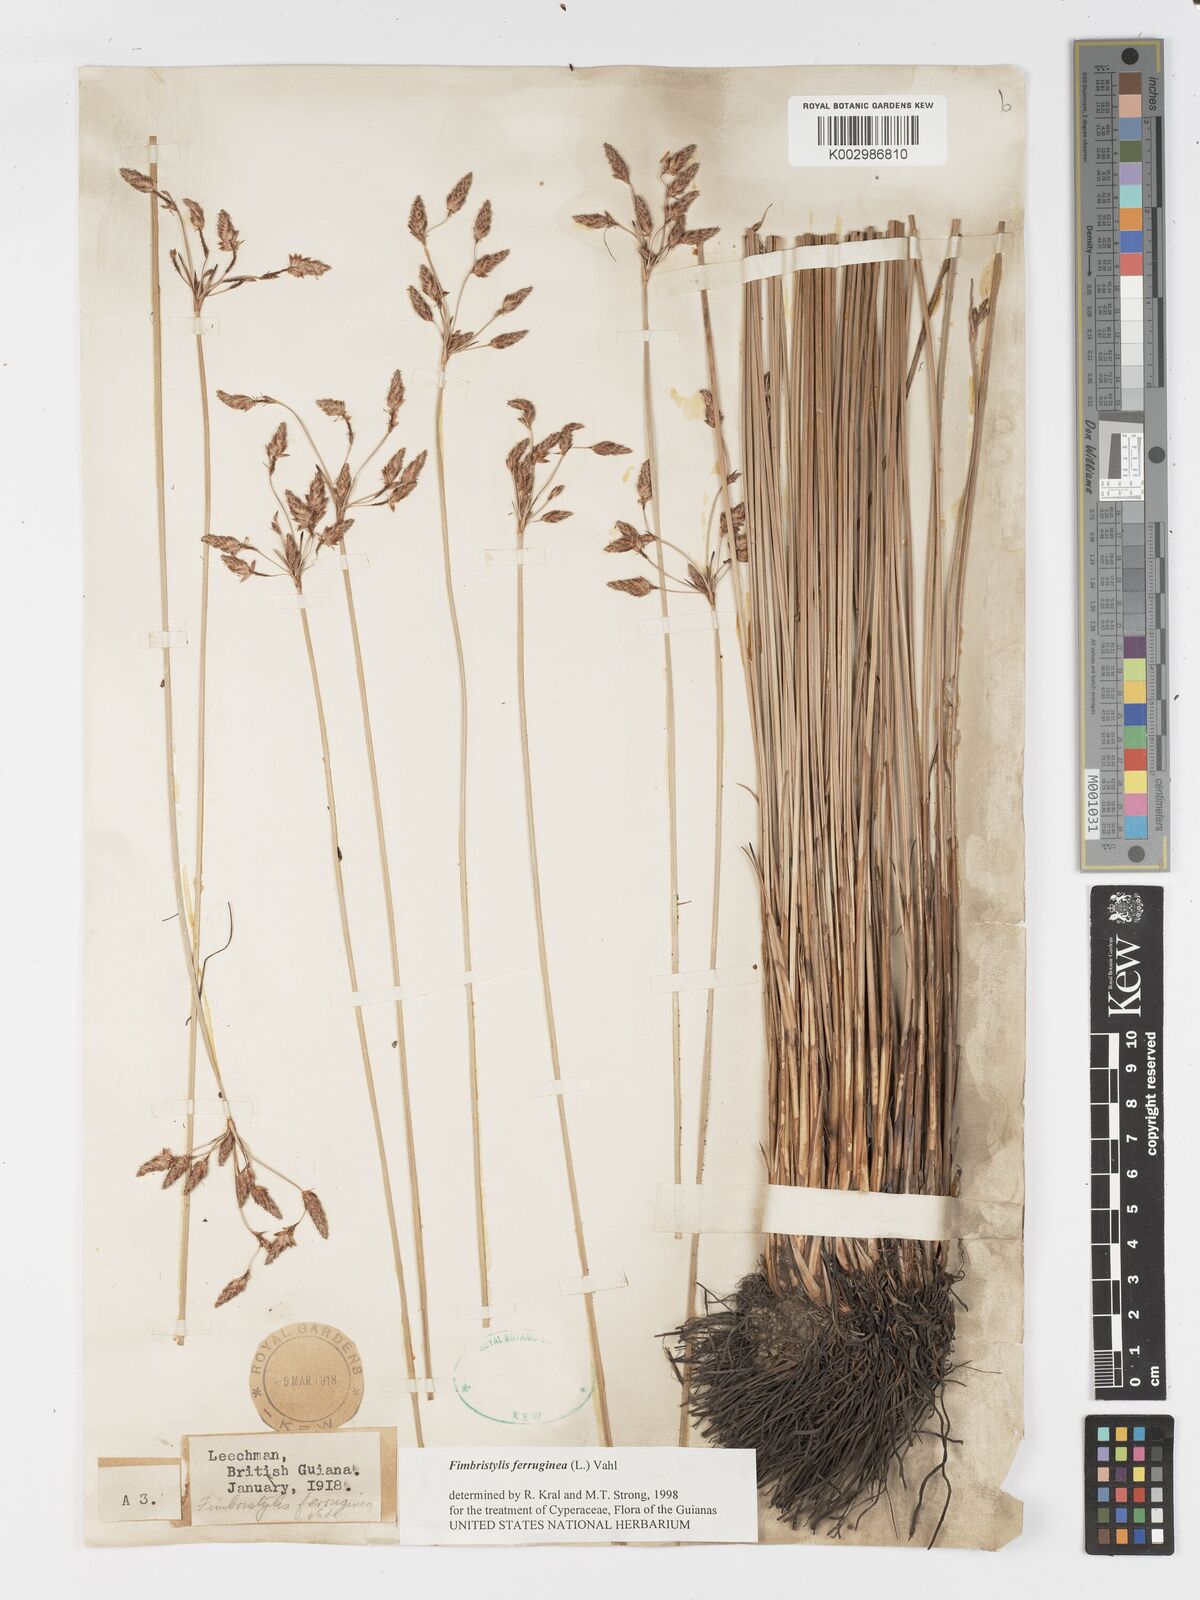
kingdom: Plantae
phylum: Tracheophyta
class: Liliopsida
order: Poales
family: Cyperaceae
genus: Fimbristylis
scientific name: Fimbristylis ferruginea
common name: West indian fimbry
